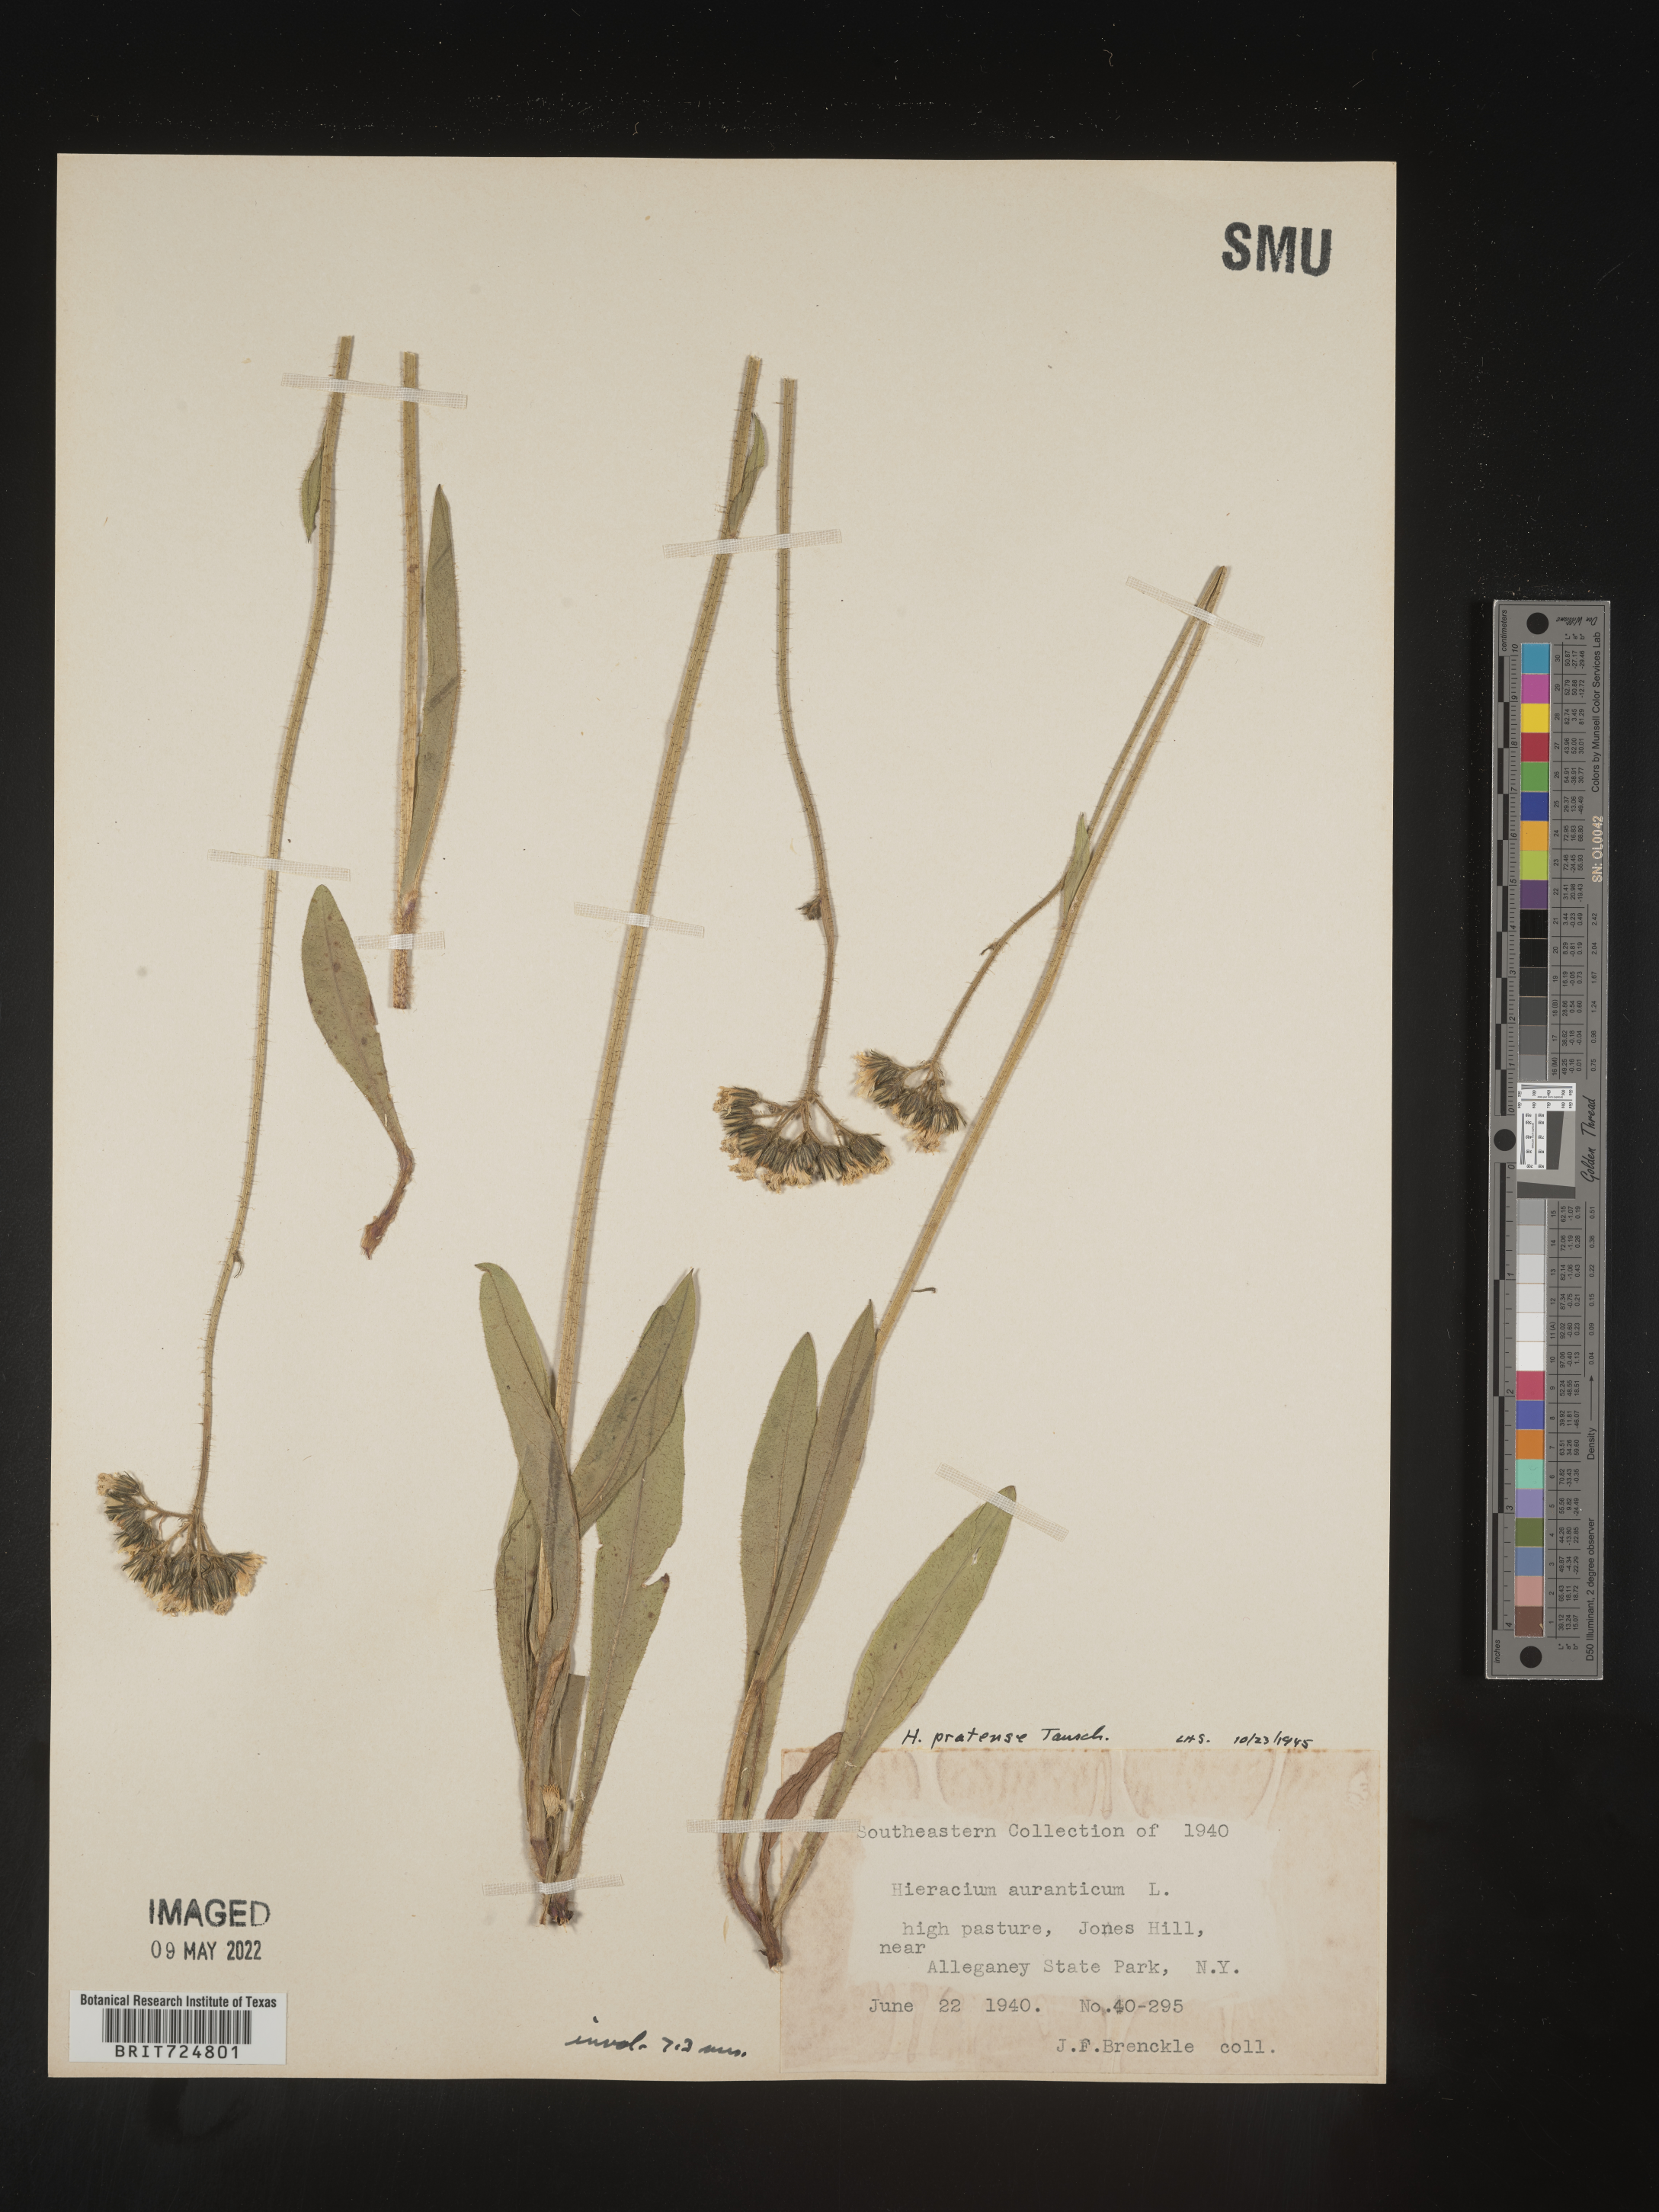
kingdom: Plantae
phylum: Tracheophyta
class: Magnoliopsida
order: Asterales
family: Asteraceae
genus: Hieracium
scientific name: Hieracium
